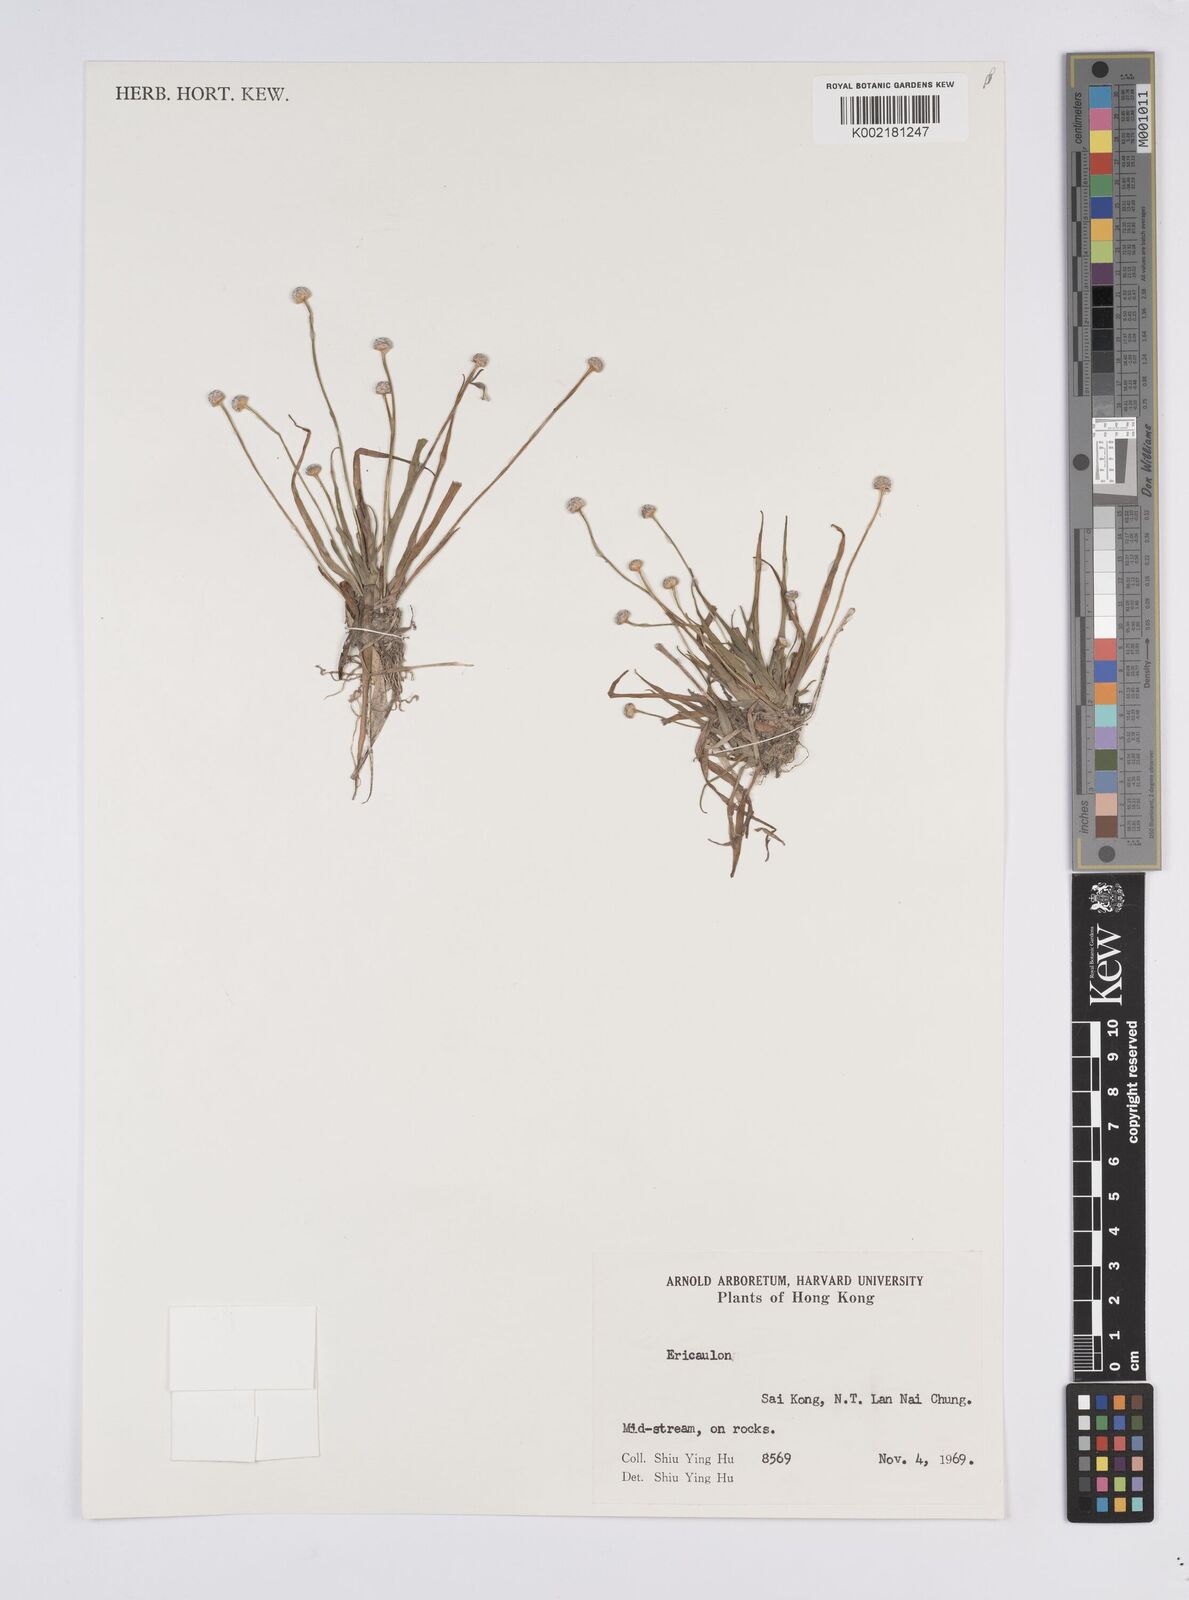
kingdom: Plantae
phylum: Tracheophyta
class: Liliopsida
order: Poales
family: Eriocaulaceae
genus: Eriocaulon
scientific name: Eriocaulon
